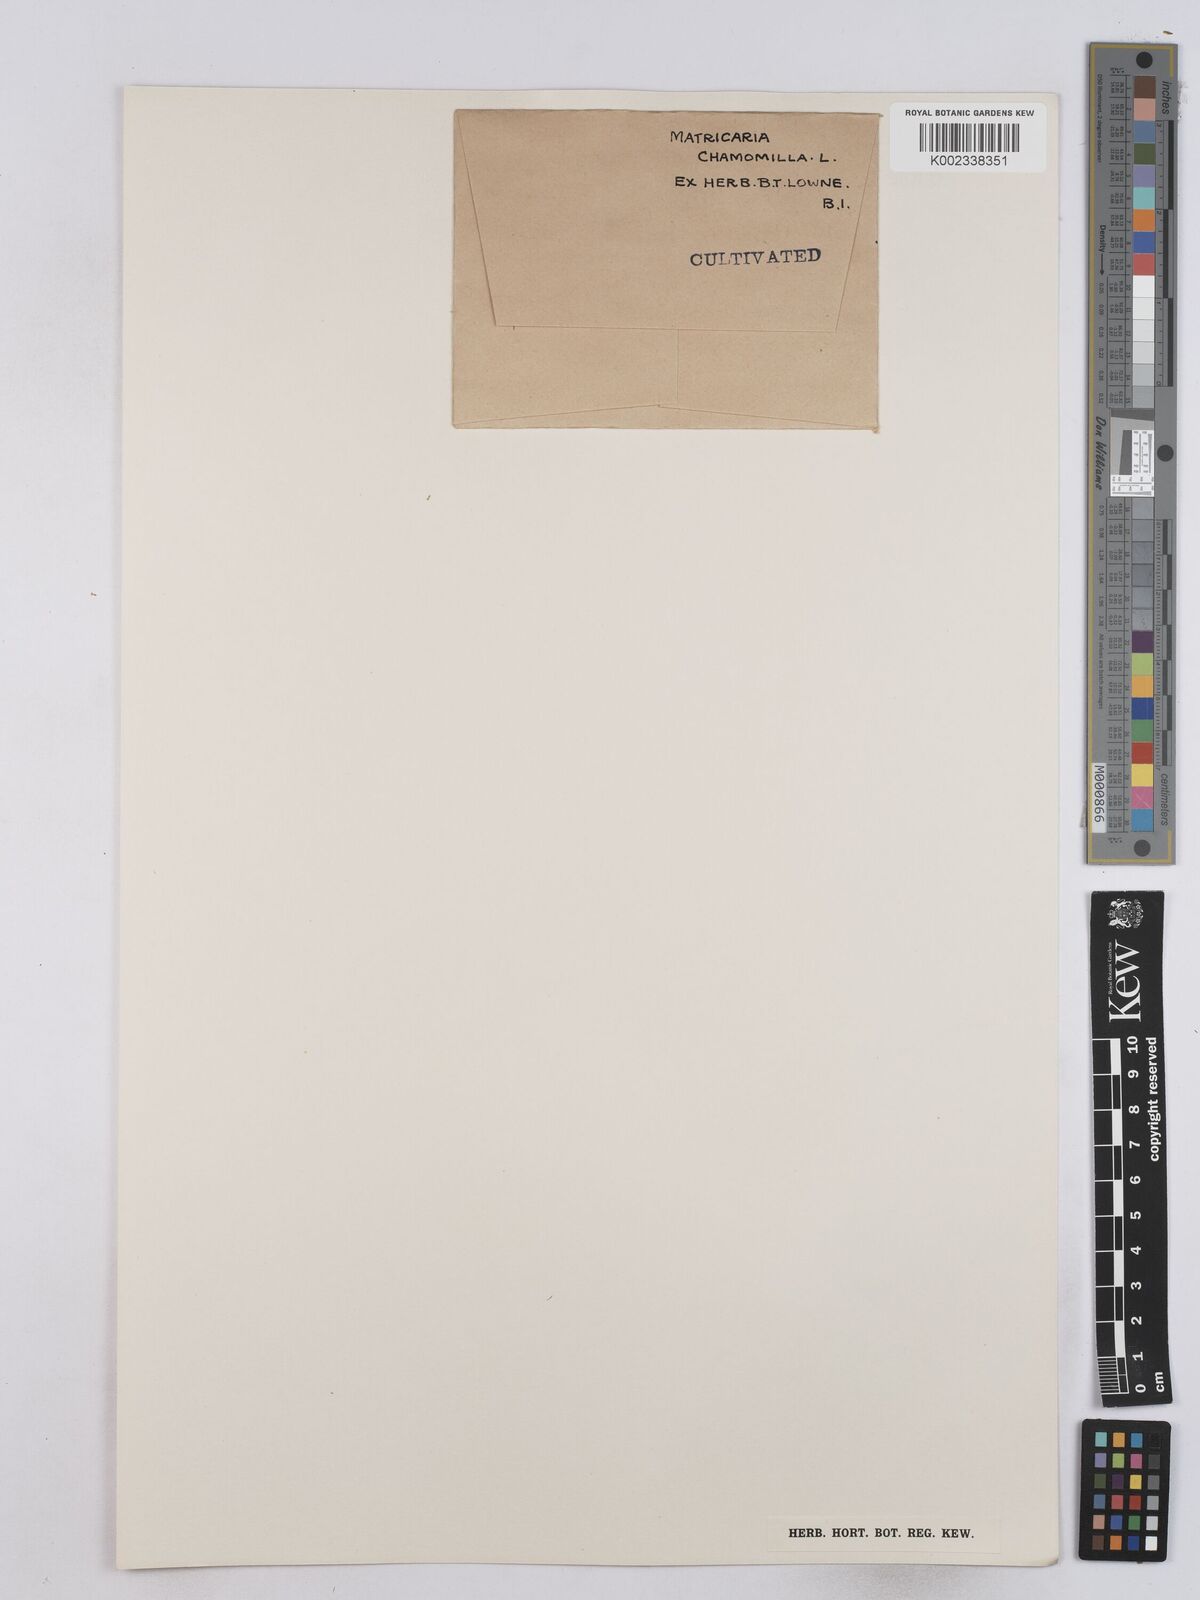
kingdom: Plantae
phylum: Tracheophyta
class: Magnoliopsida
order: Asterales
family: Asteraceae
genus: Matricaria
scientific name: Matricaria chamomilla
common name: Scented mayweed
